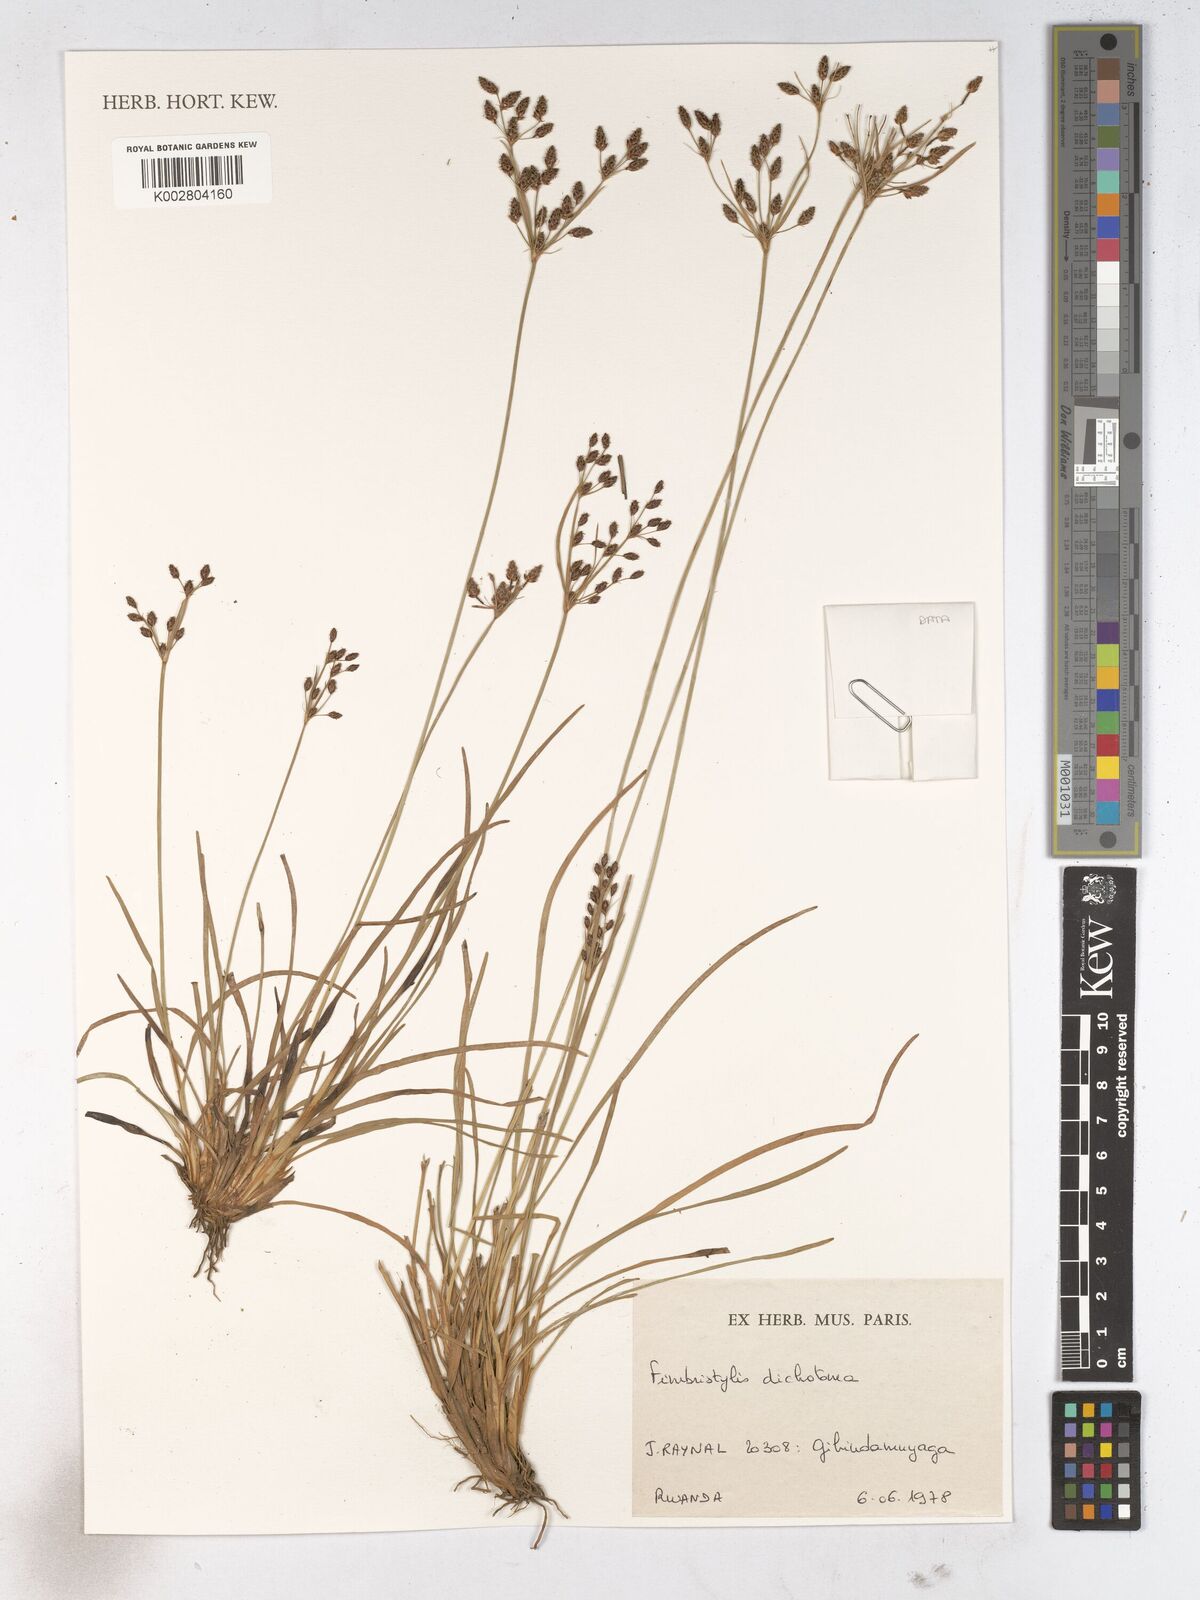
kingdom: Plantae
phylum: Tracheophyta
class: Liliopsida
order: Poales
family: Cyperaceae
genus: Fimbristylis
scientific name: Fimbristylis dichotoma
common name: Forked fimbry
